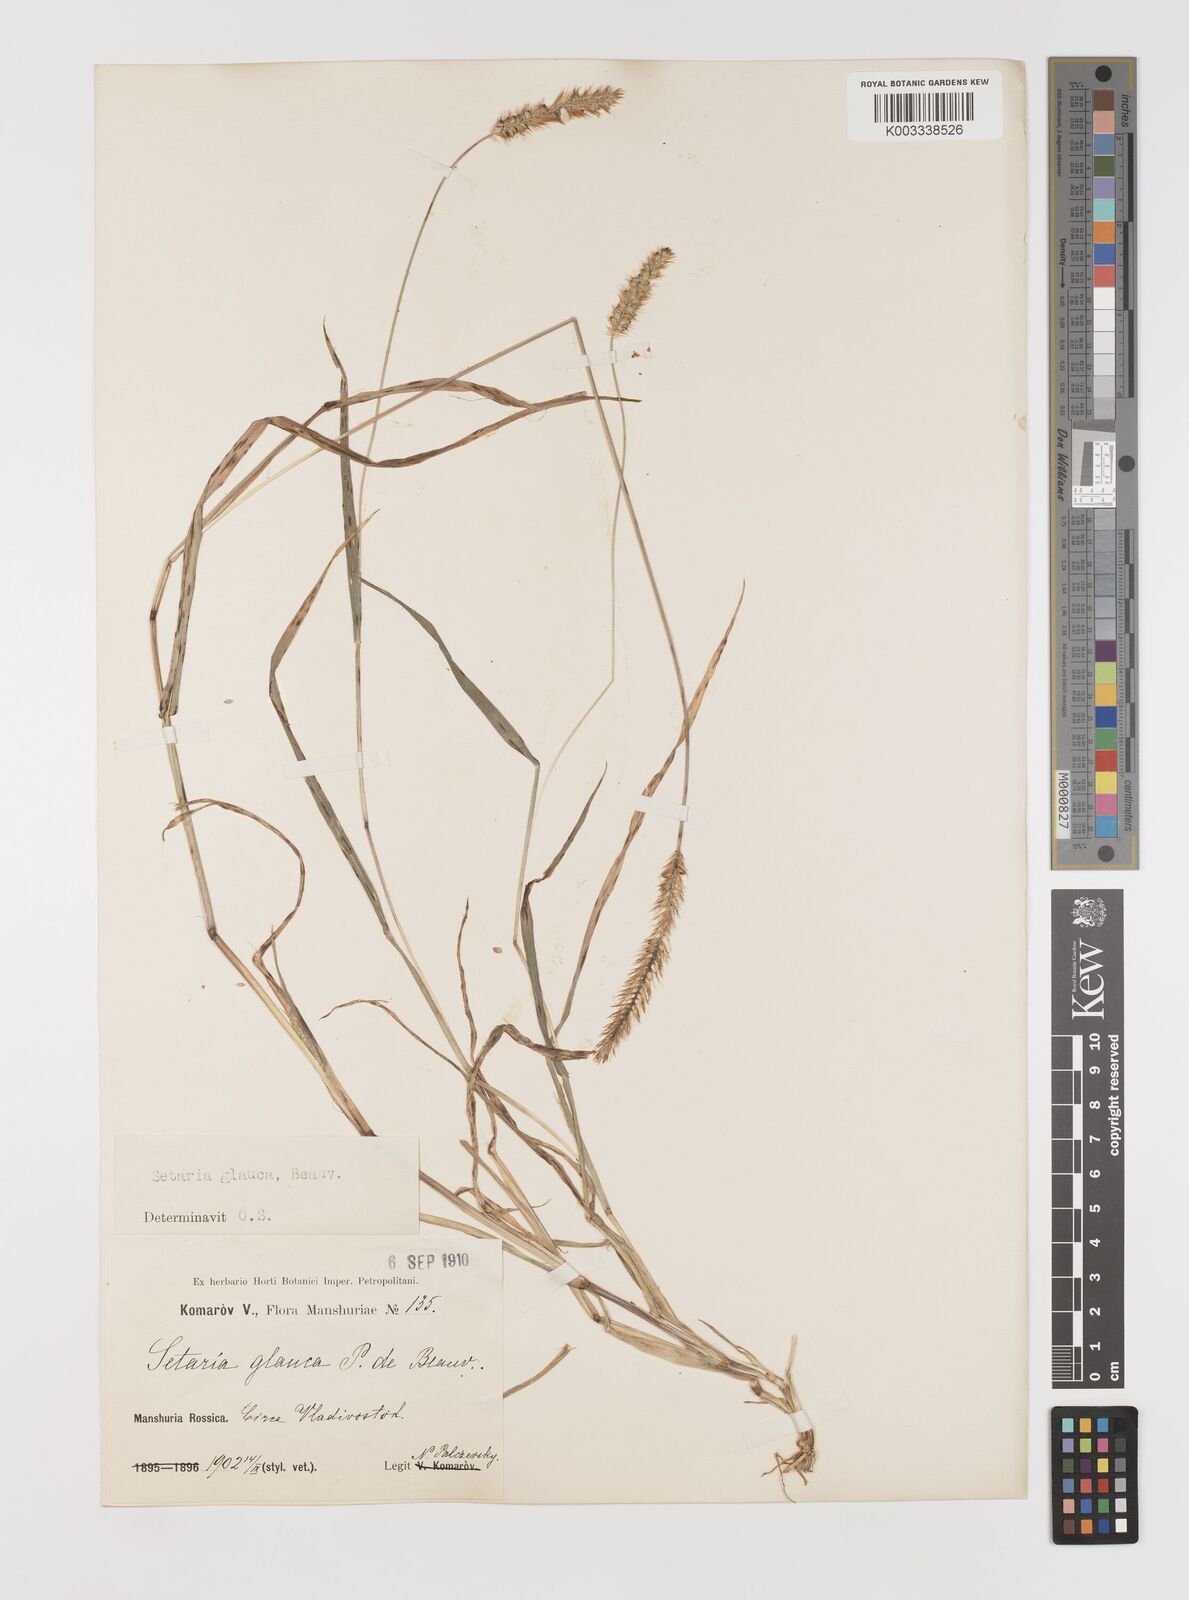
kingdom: Plantae
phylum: Tracheophyta
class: Liliopsida
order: Poales
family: Poaceae
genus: Cenchrus
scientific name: Cenchrus americanus
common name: Pearl millet
